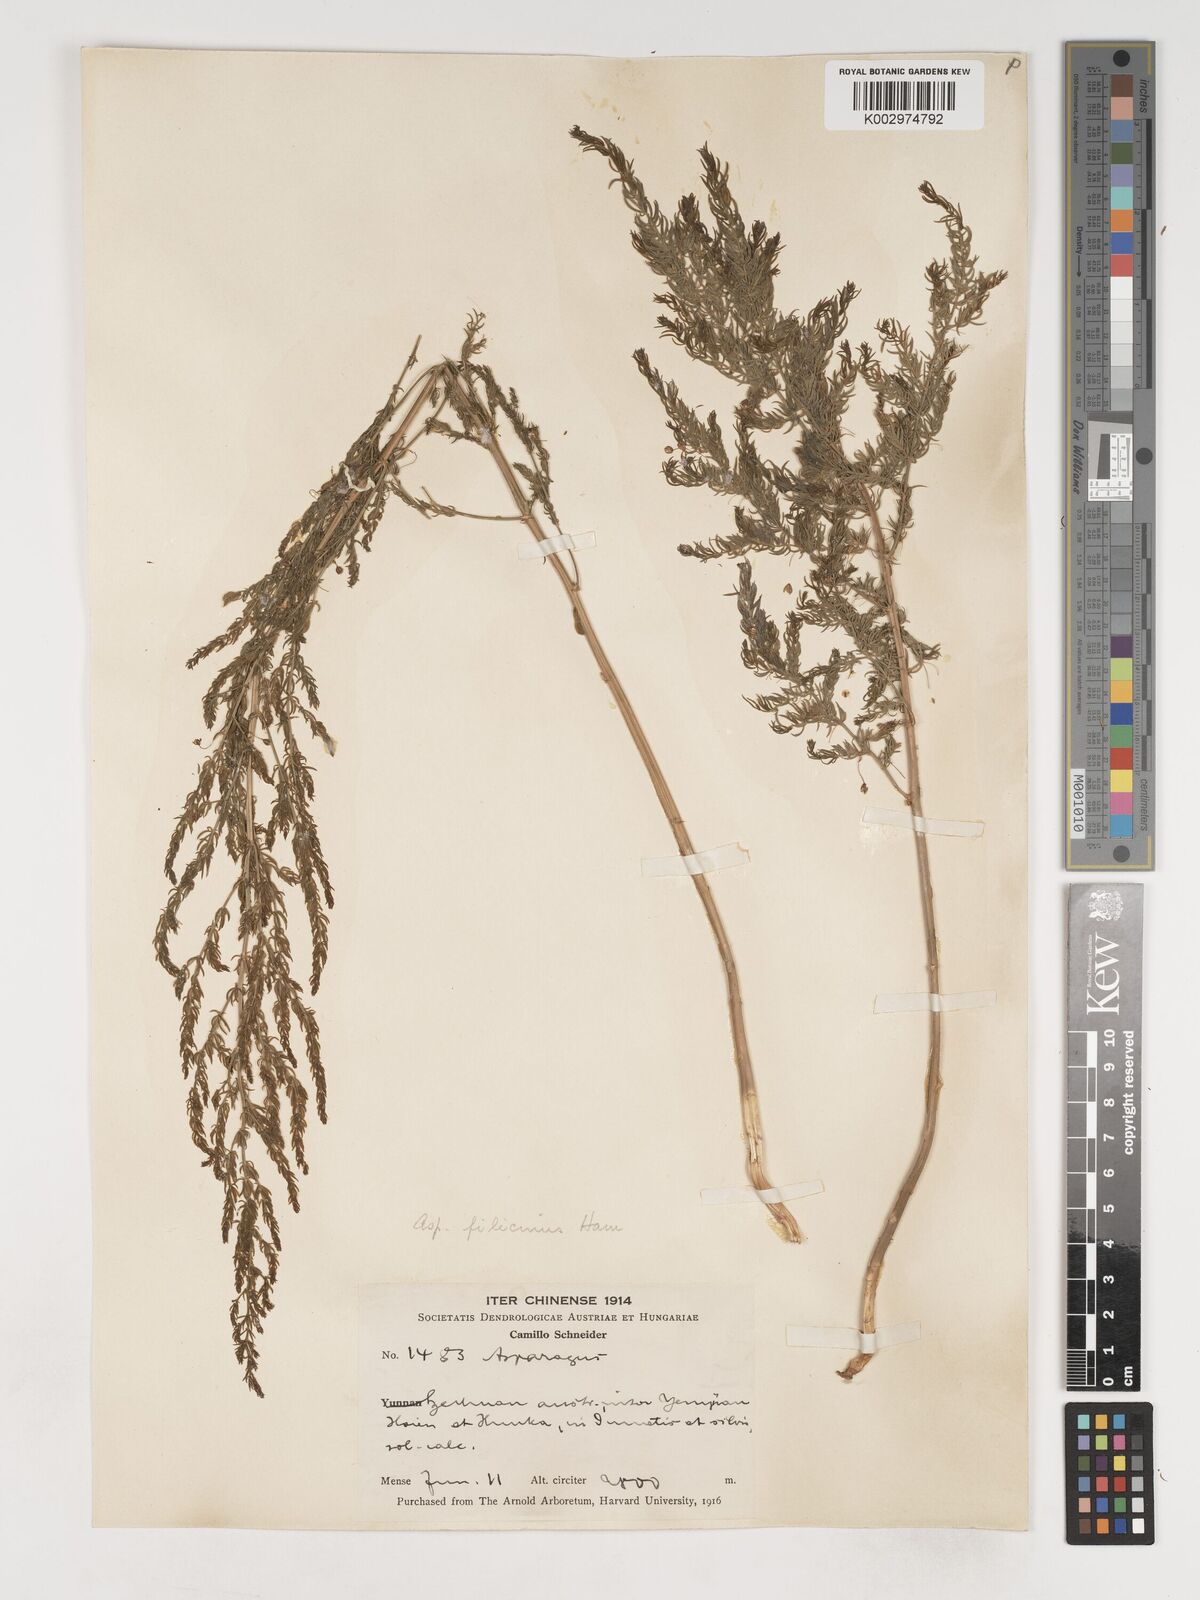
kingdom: Plantae
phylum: Tracheophyta
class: Liliopsida
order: Asparagales
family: Asparagaceae
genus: Asparagus
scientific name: Asparagus filicinus
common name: Fern asparagus
